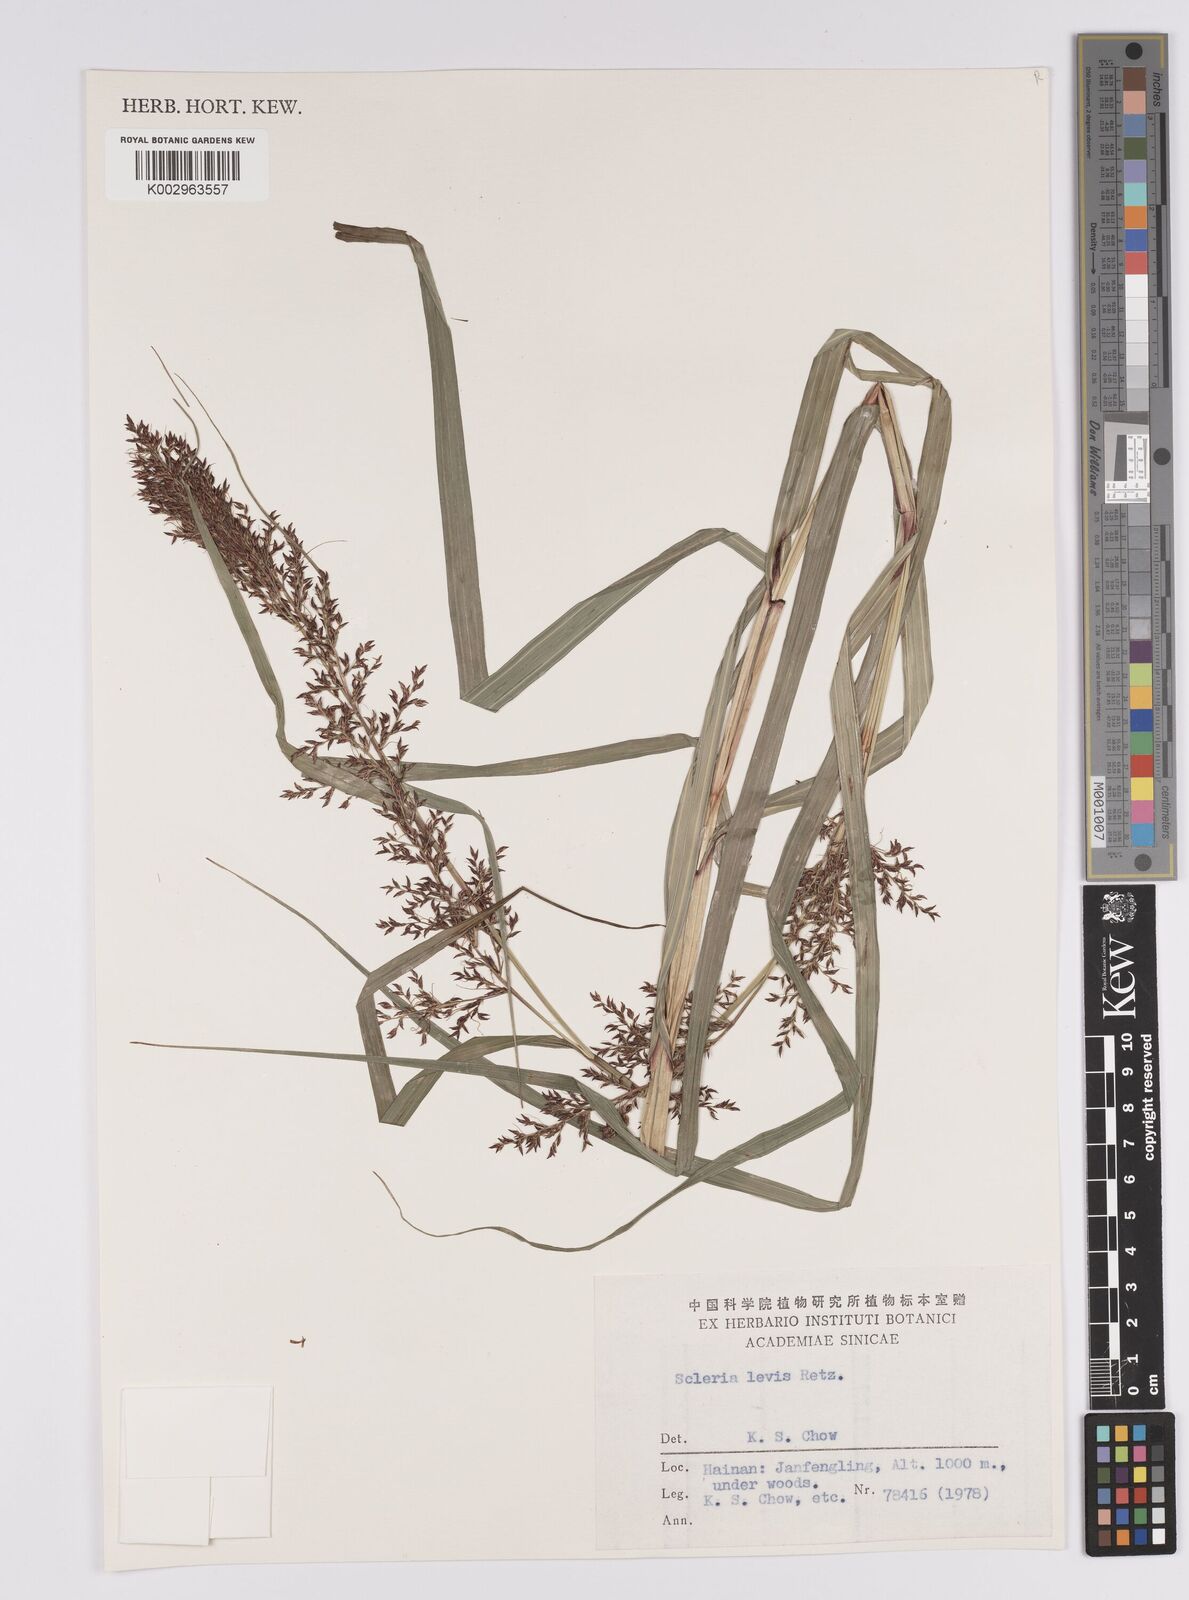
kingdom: Plantae
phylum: Tracheophyta
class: Liliopsida
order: Poales
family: Cyperaceae
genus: Scleria
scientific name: Scleria levis
